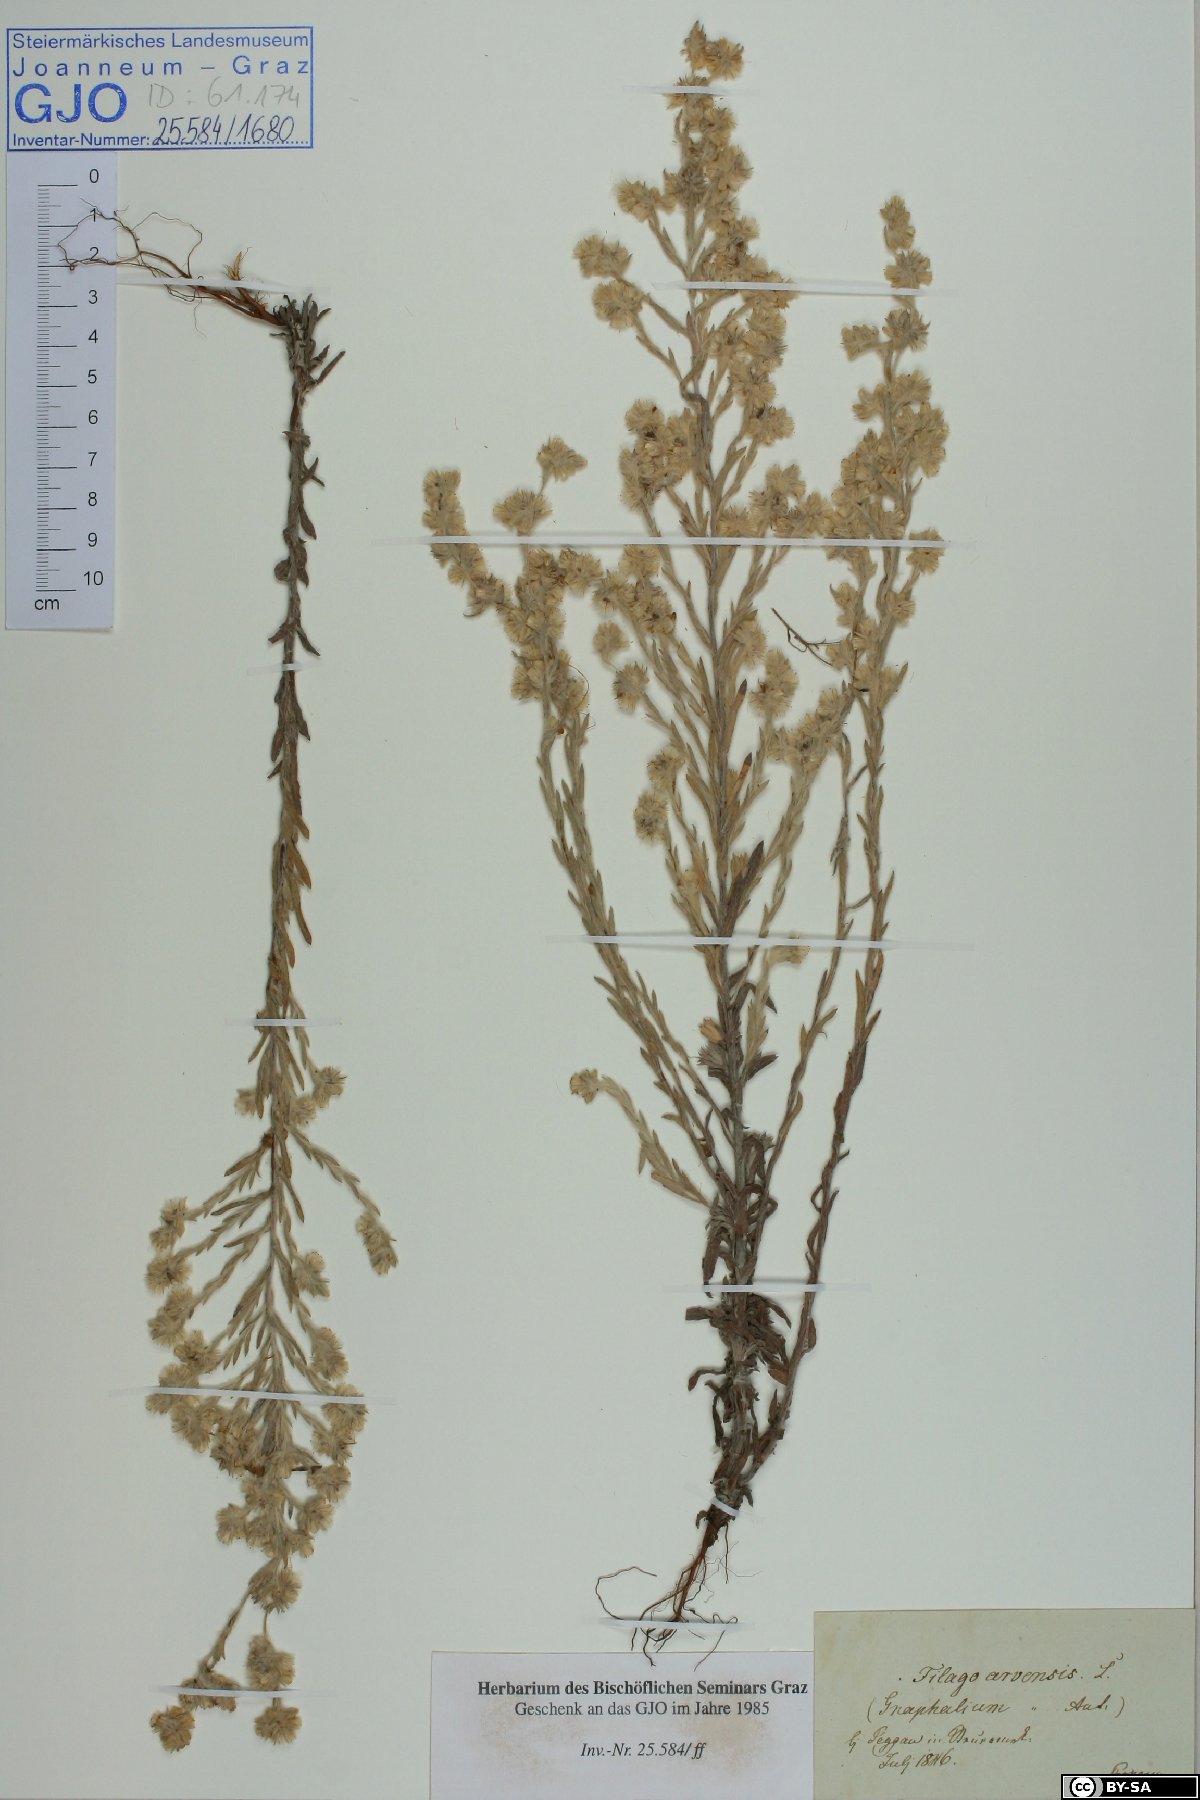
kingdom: Plantae
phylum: Tracheophyta
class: Magnoliopsida
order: Asterales
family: Asteraceae
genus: Filago
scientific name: Filago arvensis
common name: Field cudweed
